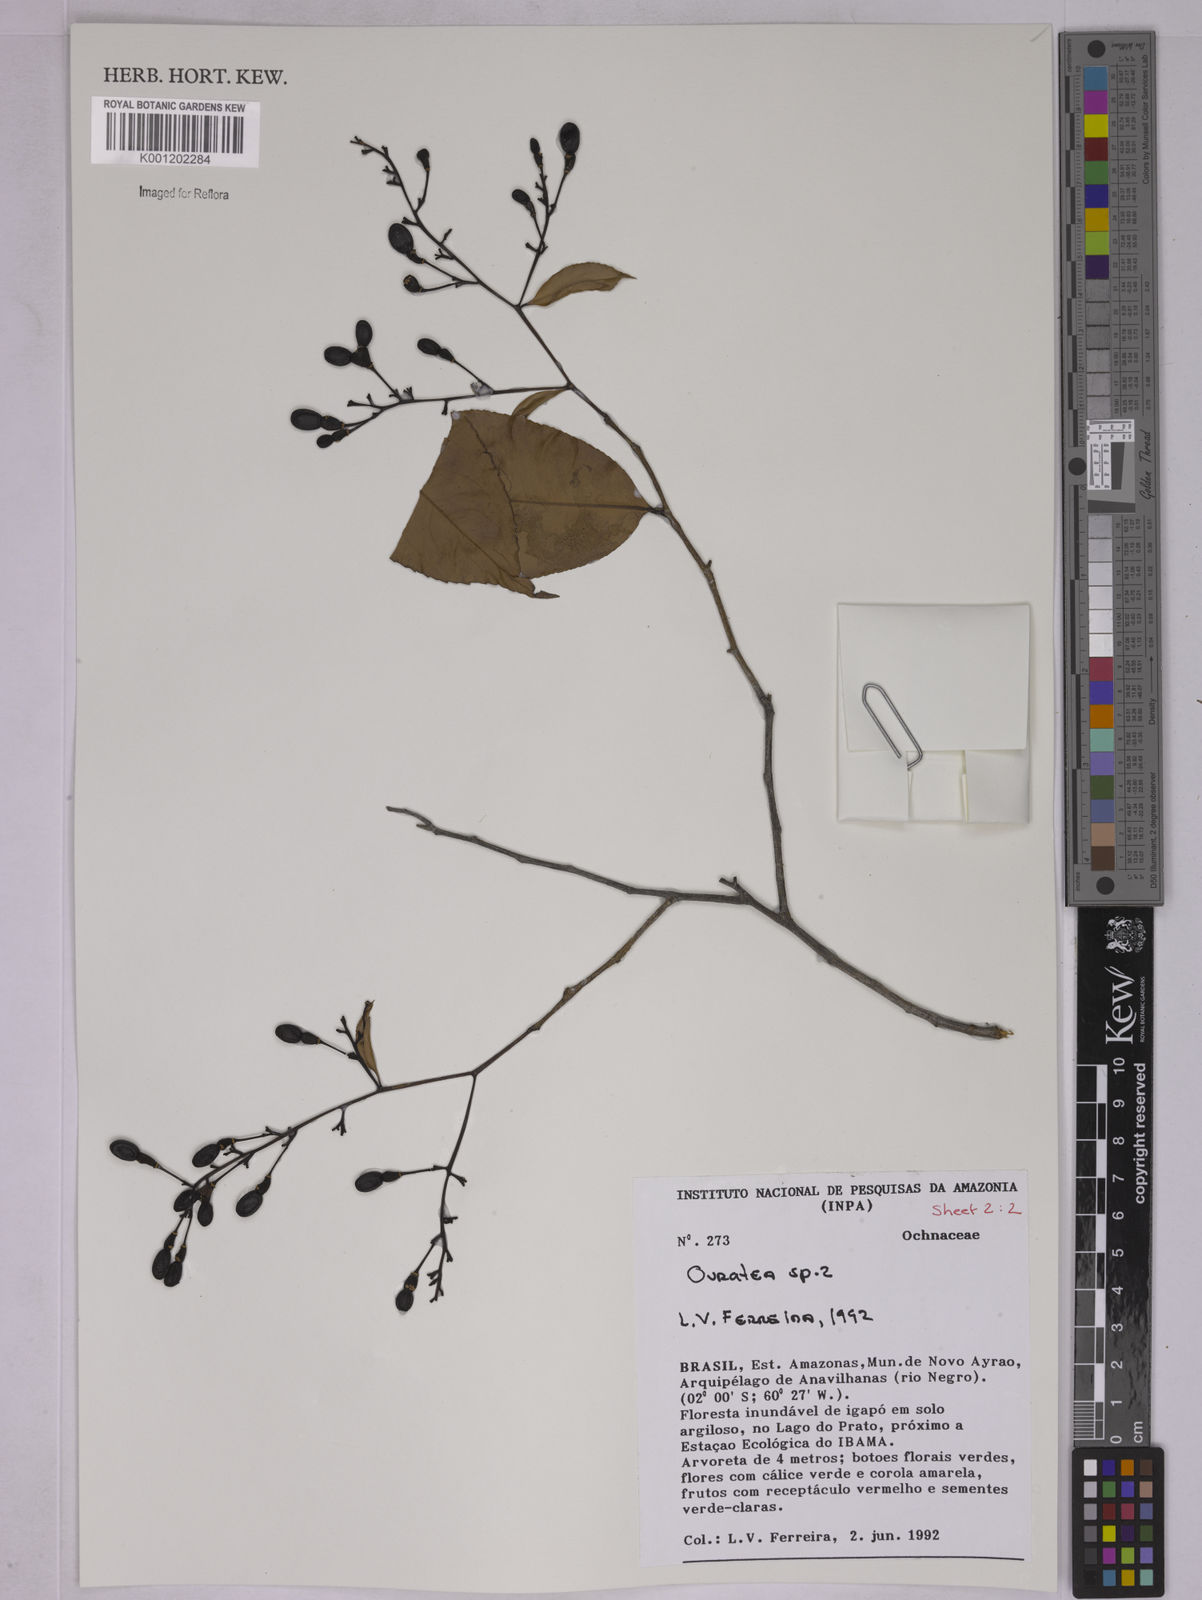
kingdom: Plantae
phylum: Tracheophyta
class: Magnoliopsida
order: Malpighiales
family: Ochnaceae
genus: Ouratea
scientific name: Ouratea
